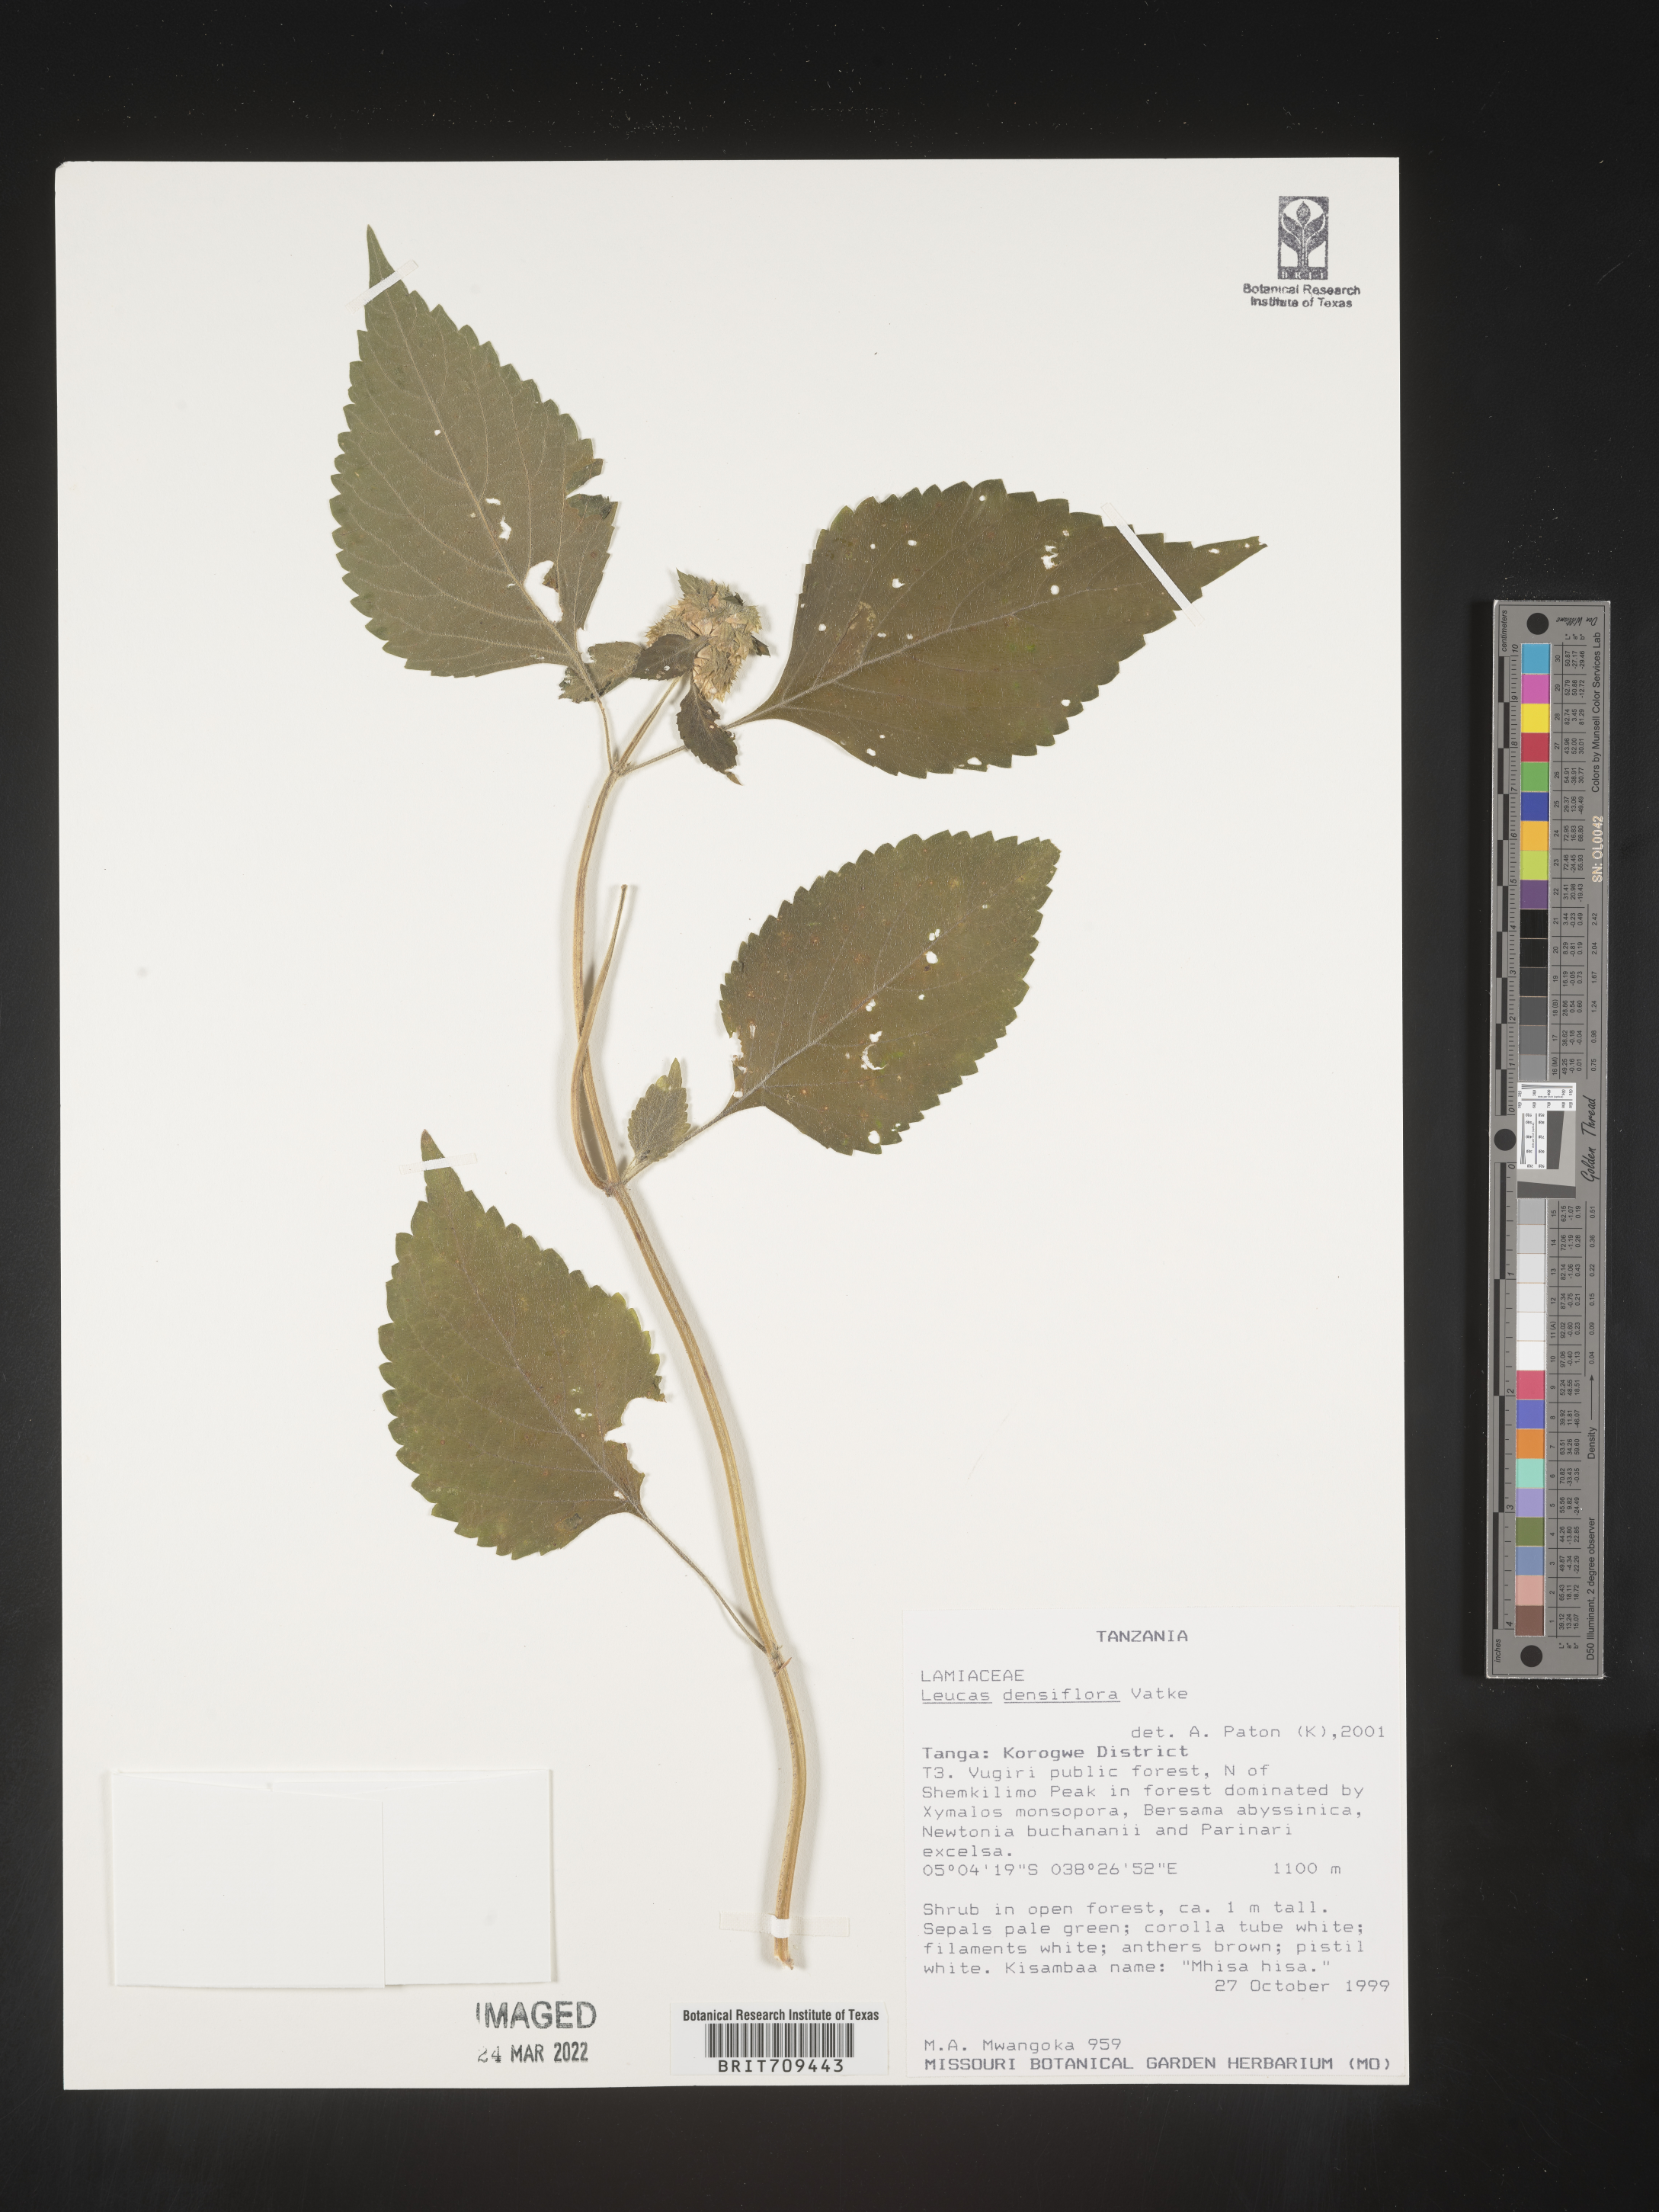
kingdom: Plantae
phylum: Tracheophyta
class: Magnoliopsida
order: Lamiales
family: Lamiaceae
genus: Leucas
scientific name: Leucas
